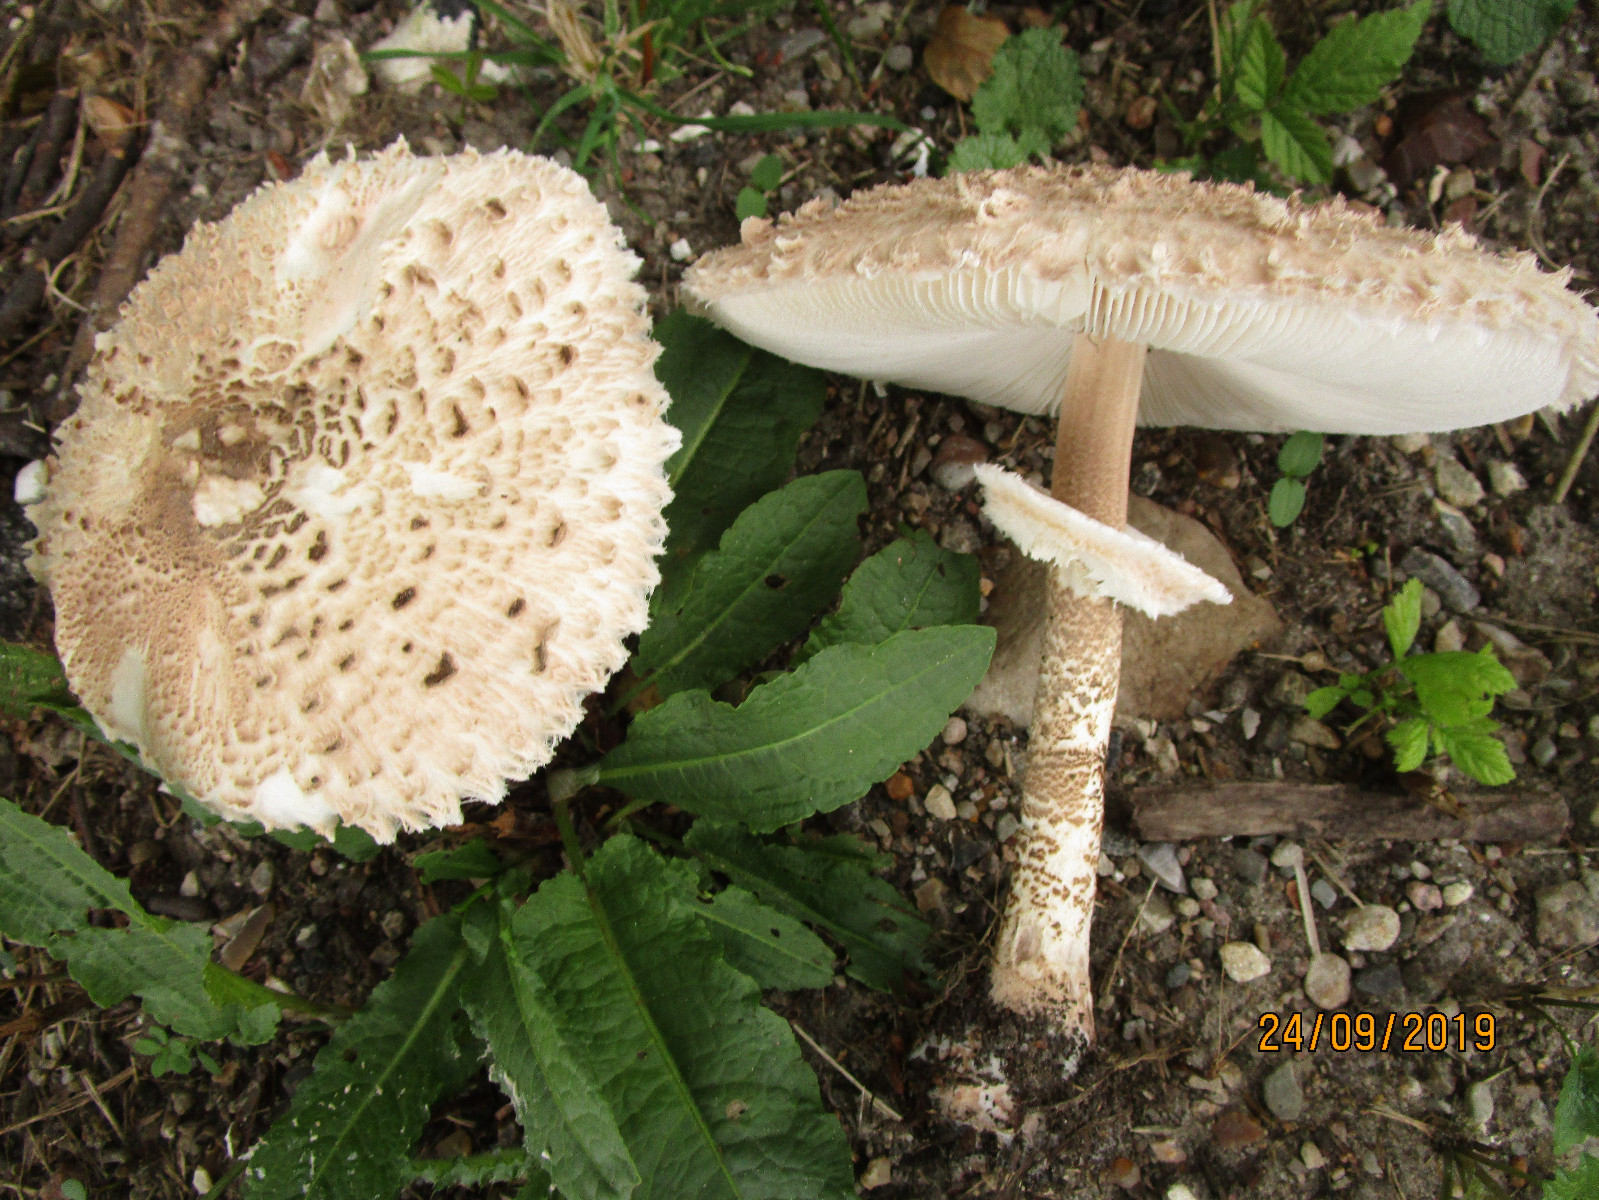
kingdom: Fungi
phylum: Basidiomycota
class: Agaricomycetes
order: Agaricales
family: Agaricaceae
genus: Macrolepiota
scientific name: Macrolepiota fuliginosa
